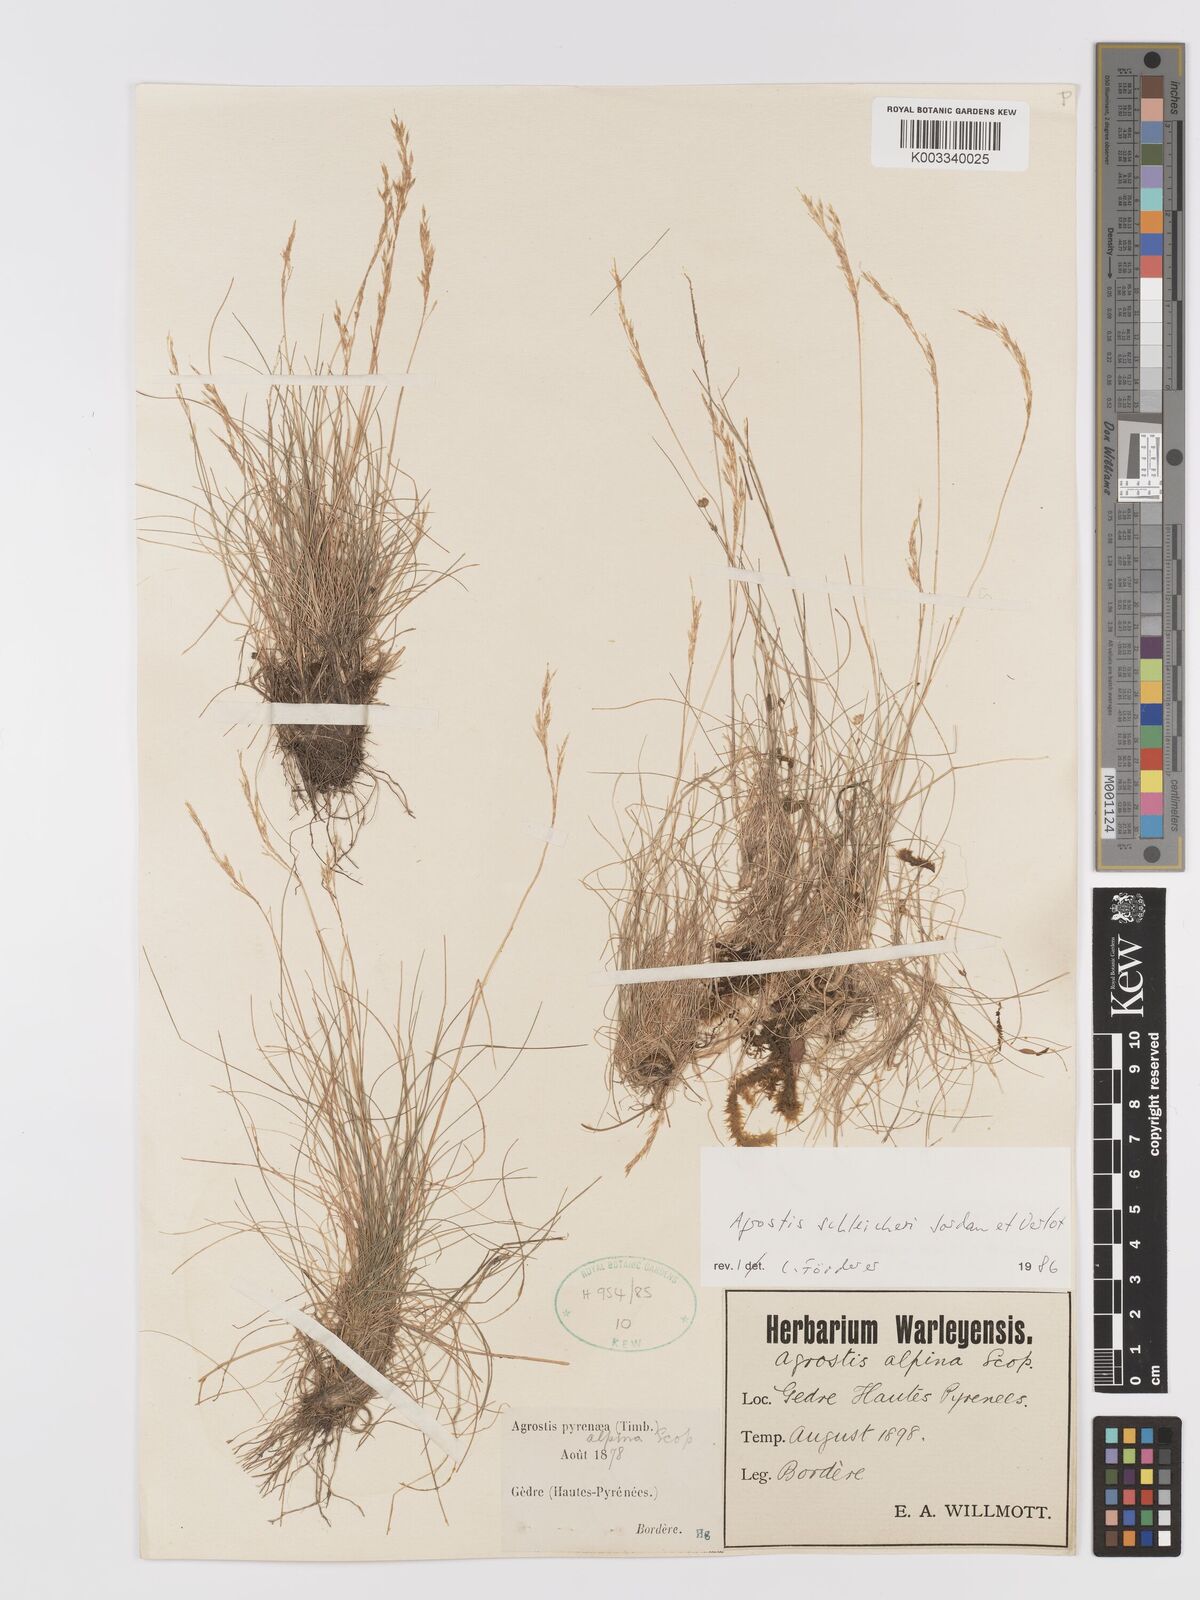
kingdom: Plantae
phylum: Tracheophyta
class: Liliopsida
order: Poales
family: Poaceae
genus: Alpagrostis
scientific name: Alpagrostis schleicheri
